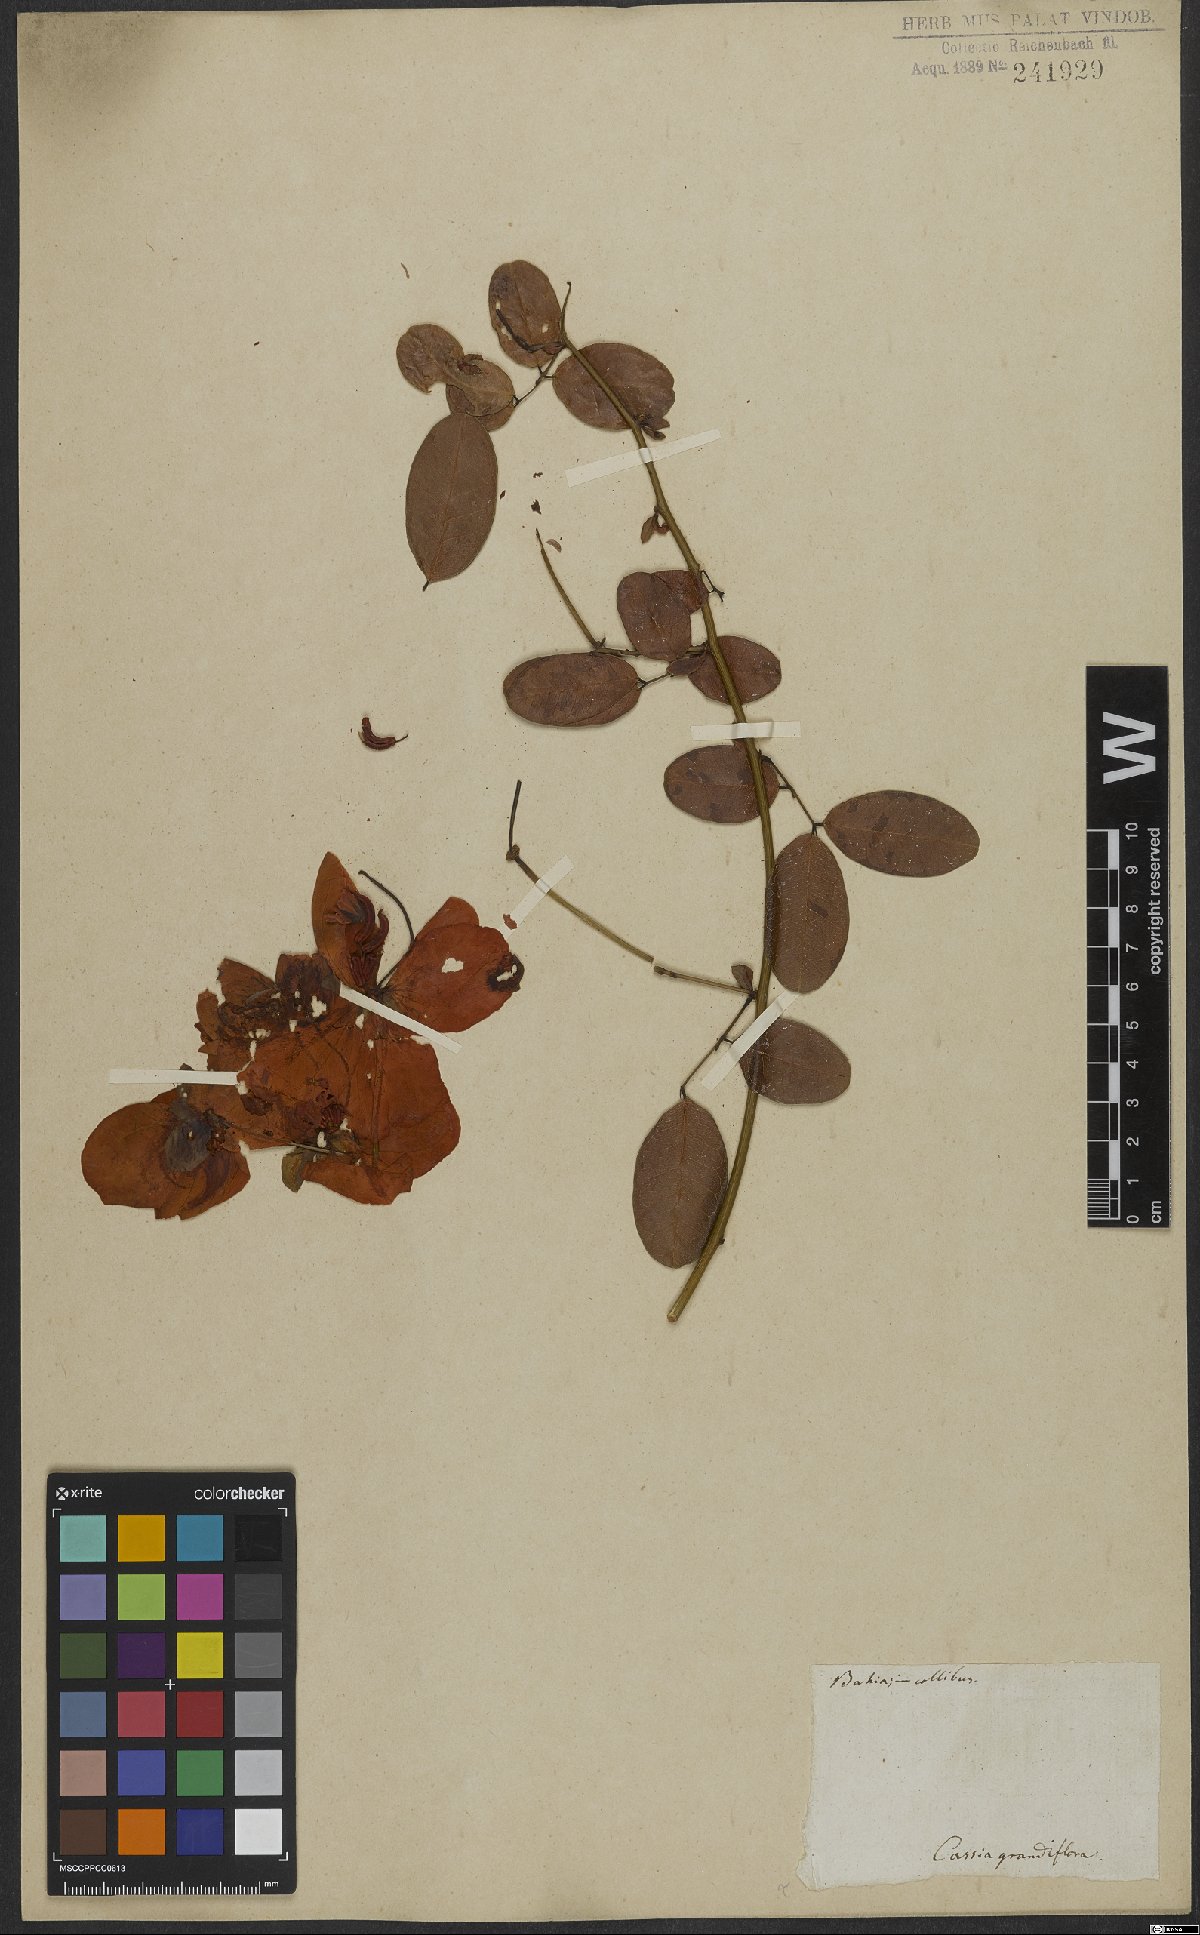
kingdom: Plantae
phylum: Tracheophyta
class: Magnoliopsida
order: Fabales
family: Fabaceae
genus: Senna
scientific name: Senna septemtrionalis
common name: Arsenic bush
